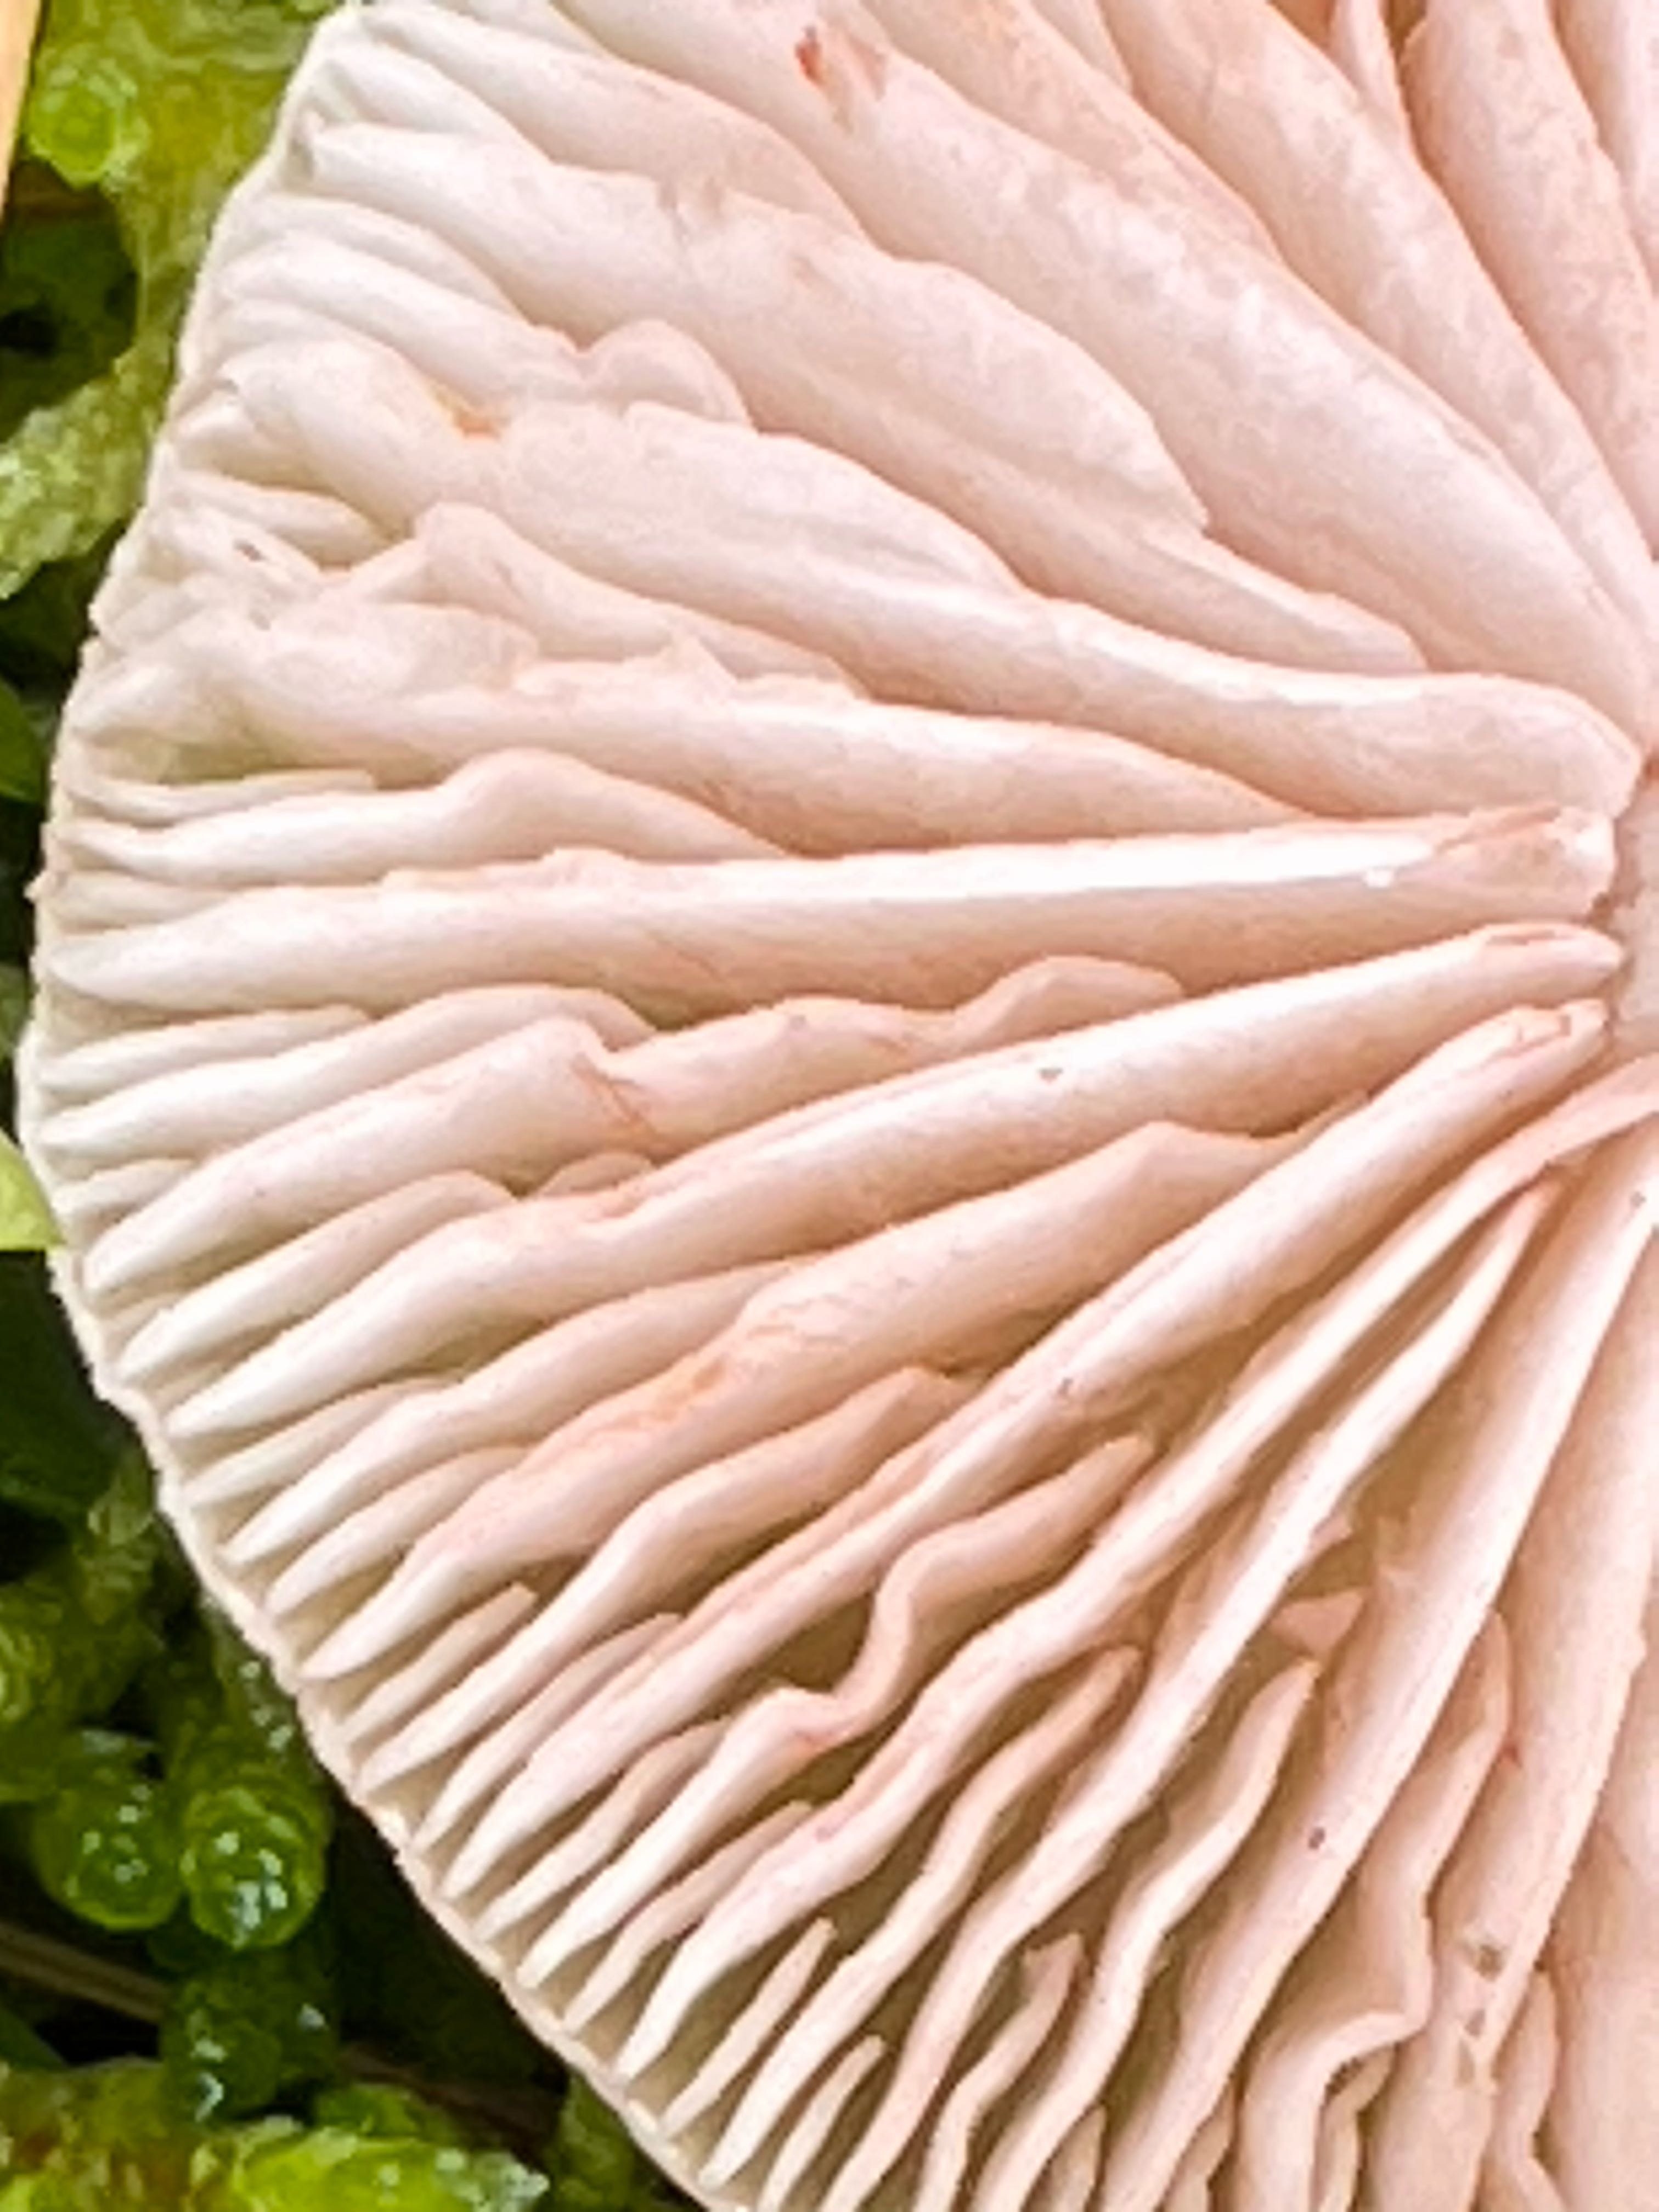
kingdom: Fungi
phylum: Basidiomycota
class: Agaricomycetes
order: Agaricales
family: Entolomataceae
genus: Entoloma
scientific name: Entoloma sericellum
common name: silkehvid rødblad
